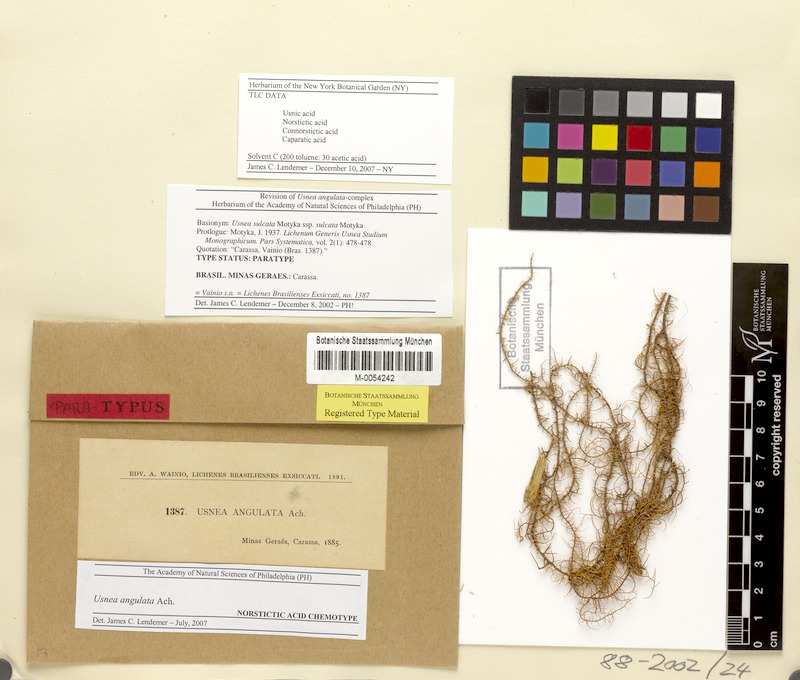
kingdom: Fungi
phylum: Ascomycota
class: Lecanoromycetes
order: Lecanorales
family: Parmeliaceae
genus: Usnea
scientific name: Usnea angulata
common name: Old-man’s beard lichen
